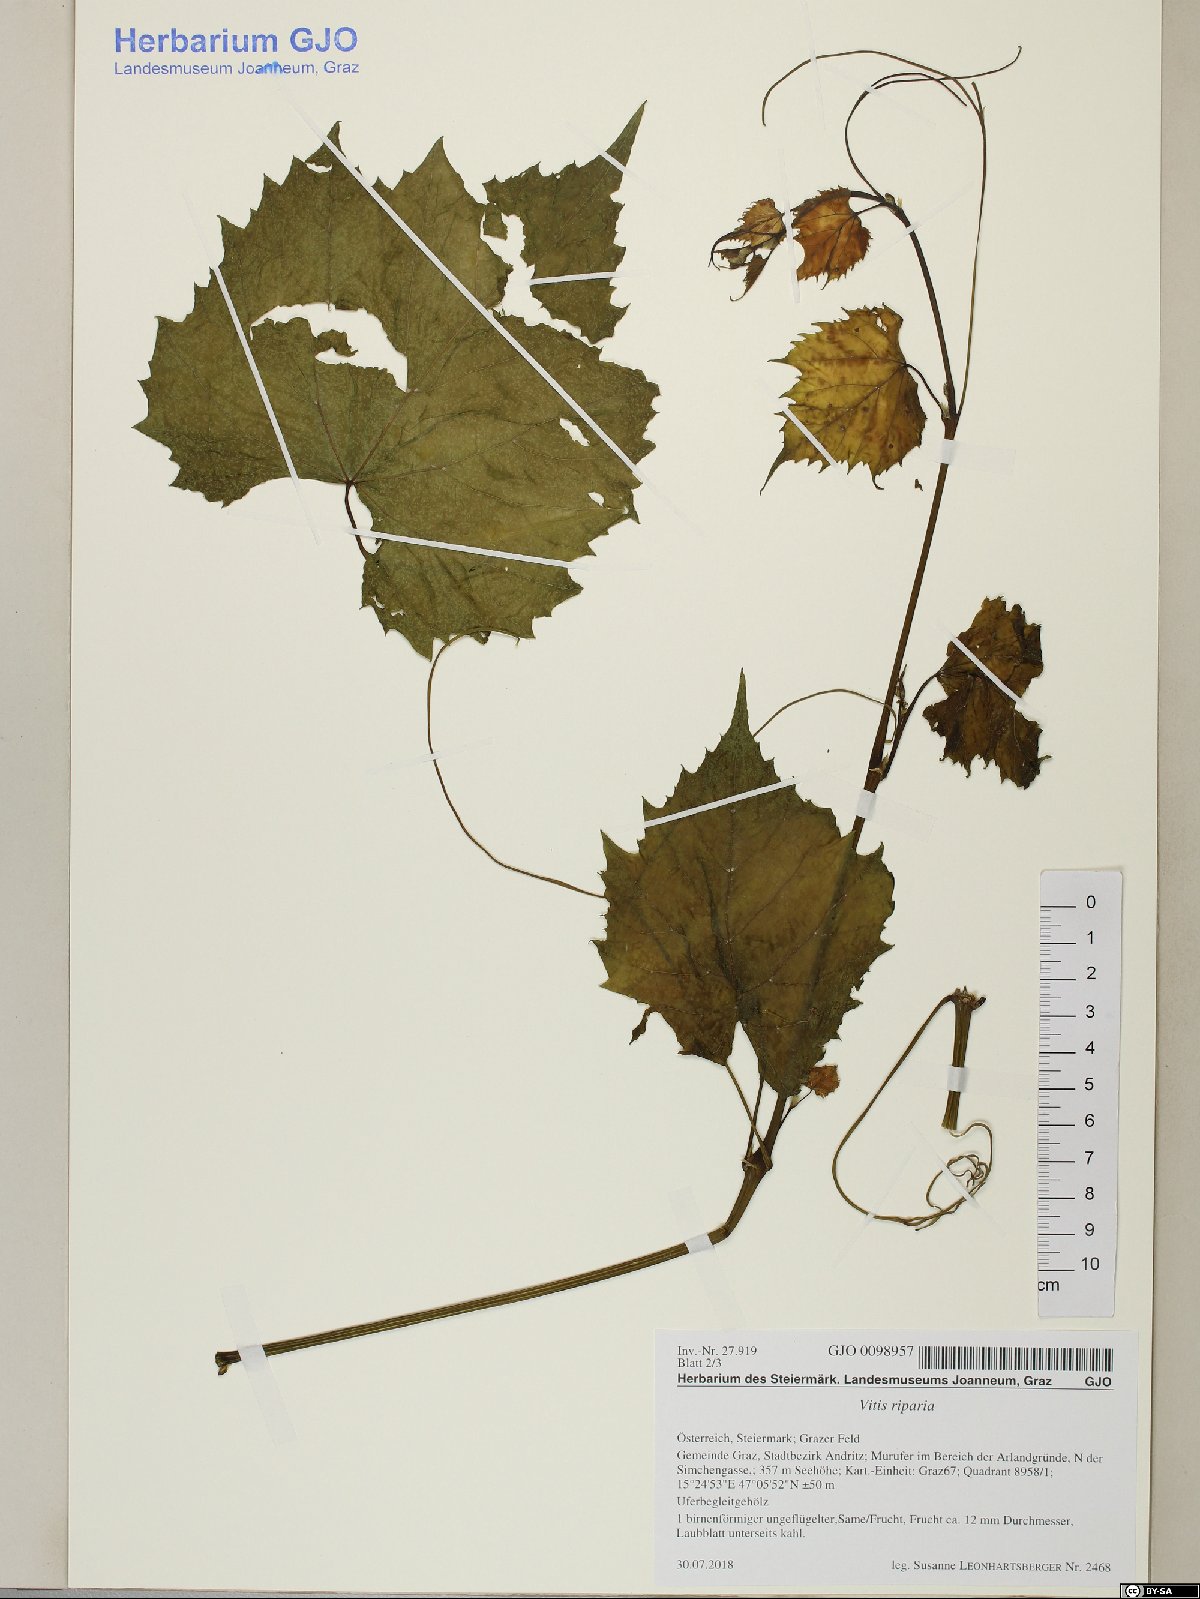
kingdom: Plantae
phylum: Tracheophyta
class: Magnoliopsida
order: Vitales
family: Vitaceae
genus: Vitis
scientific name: Vitis riparia
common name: Frost grape
